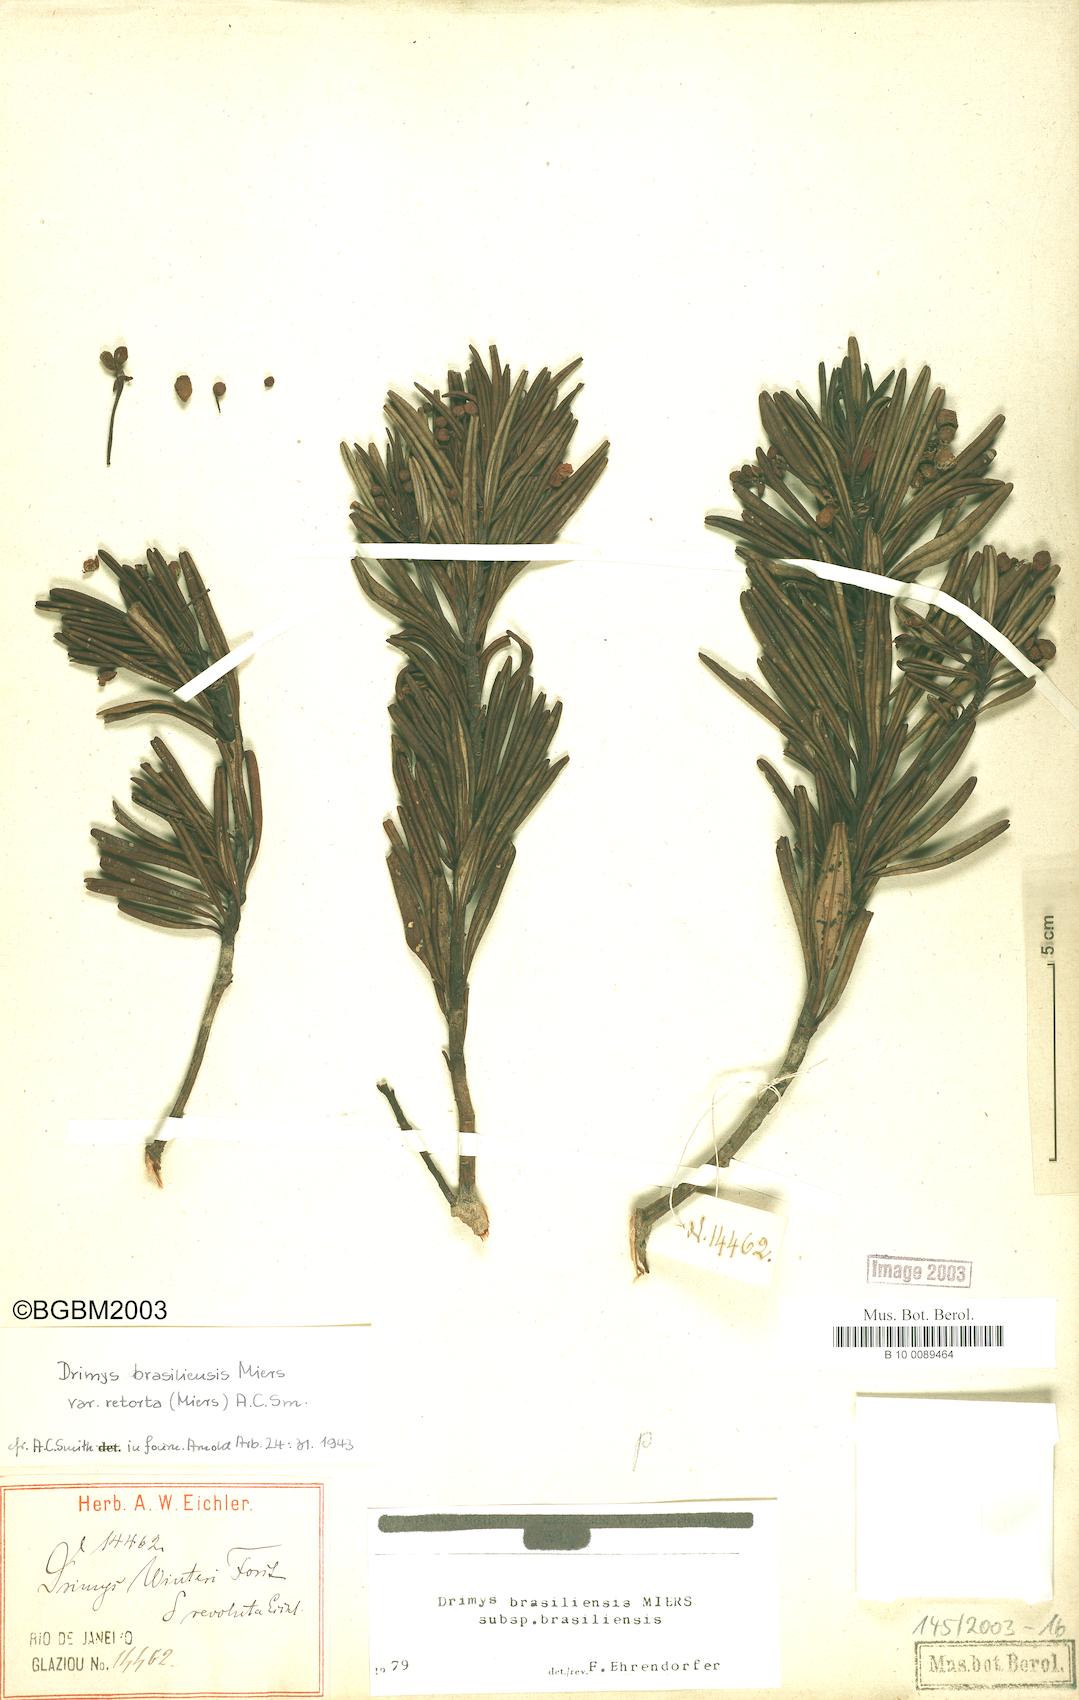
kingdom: Plantae
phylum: Tracheophyta
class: Magnoliopsida
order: Canellales
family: Winteraceae
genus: Drimys
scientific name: Drimys brasiliensis
